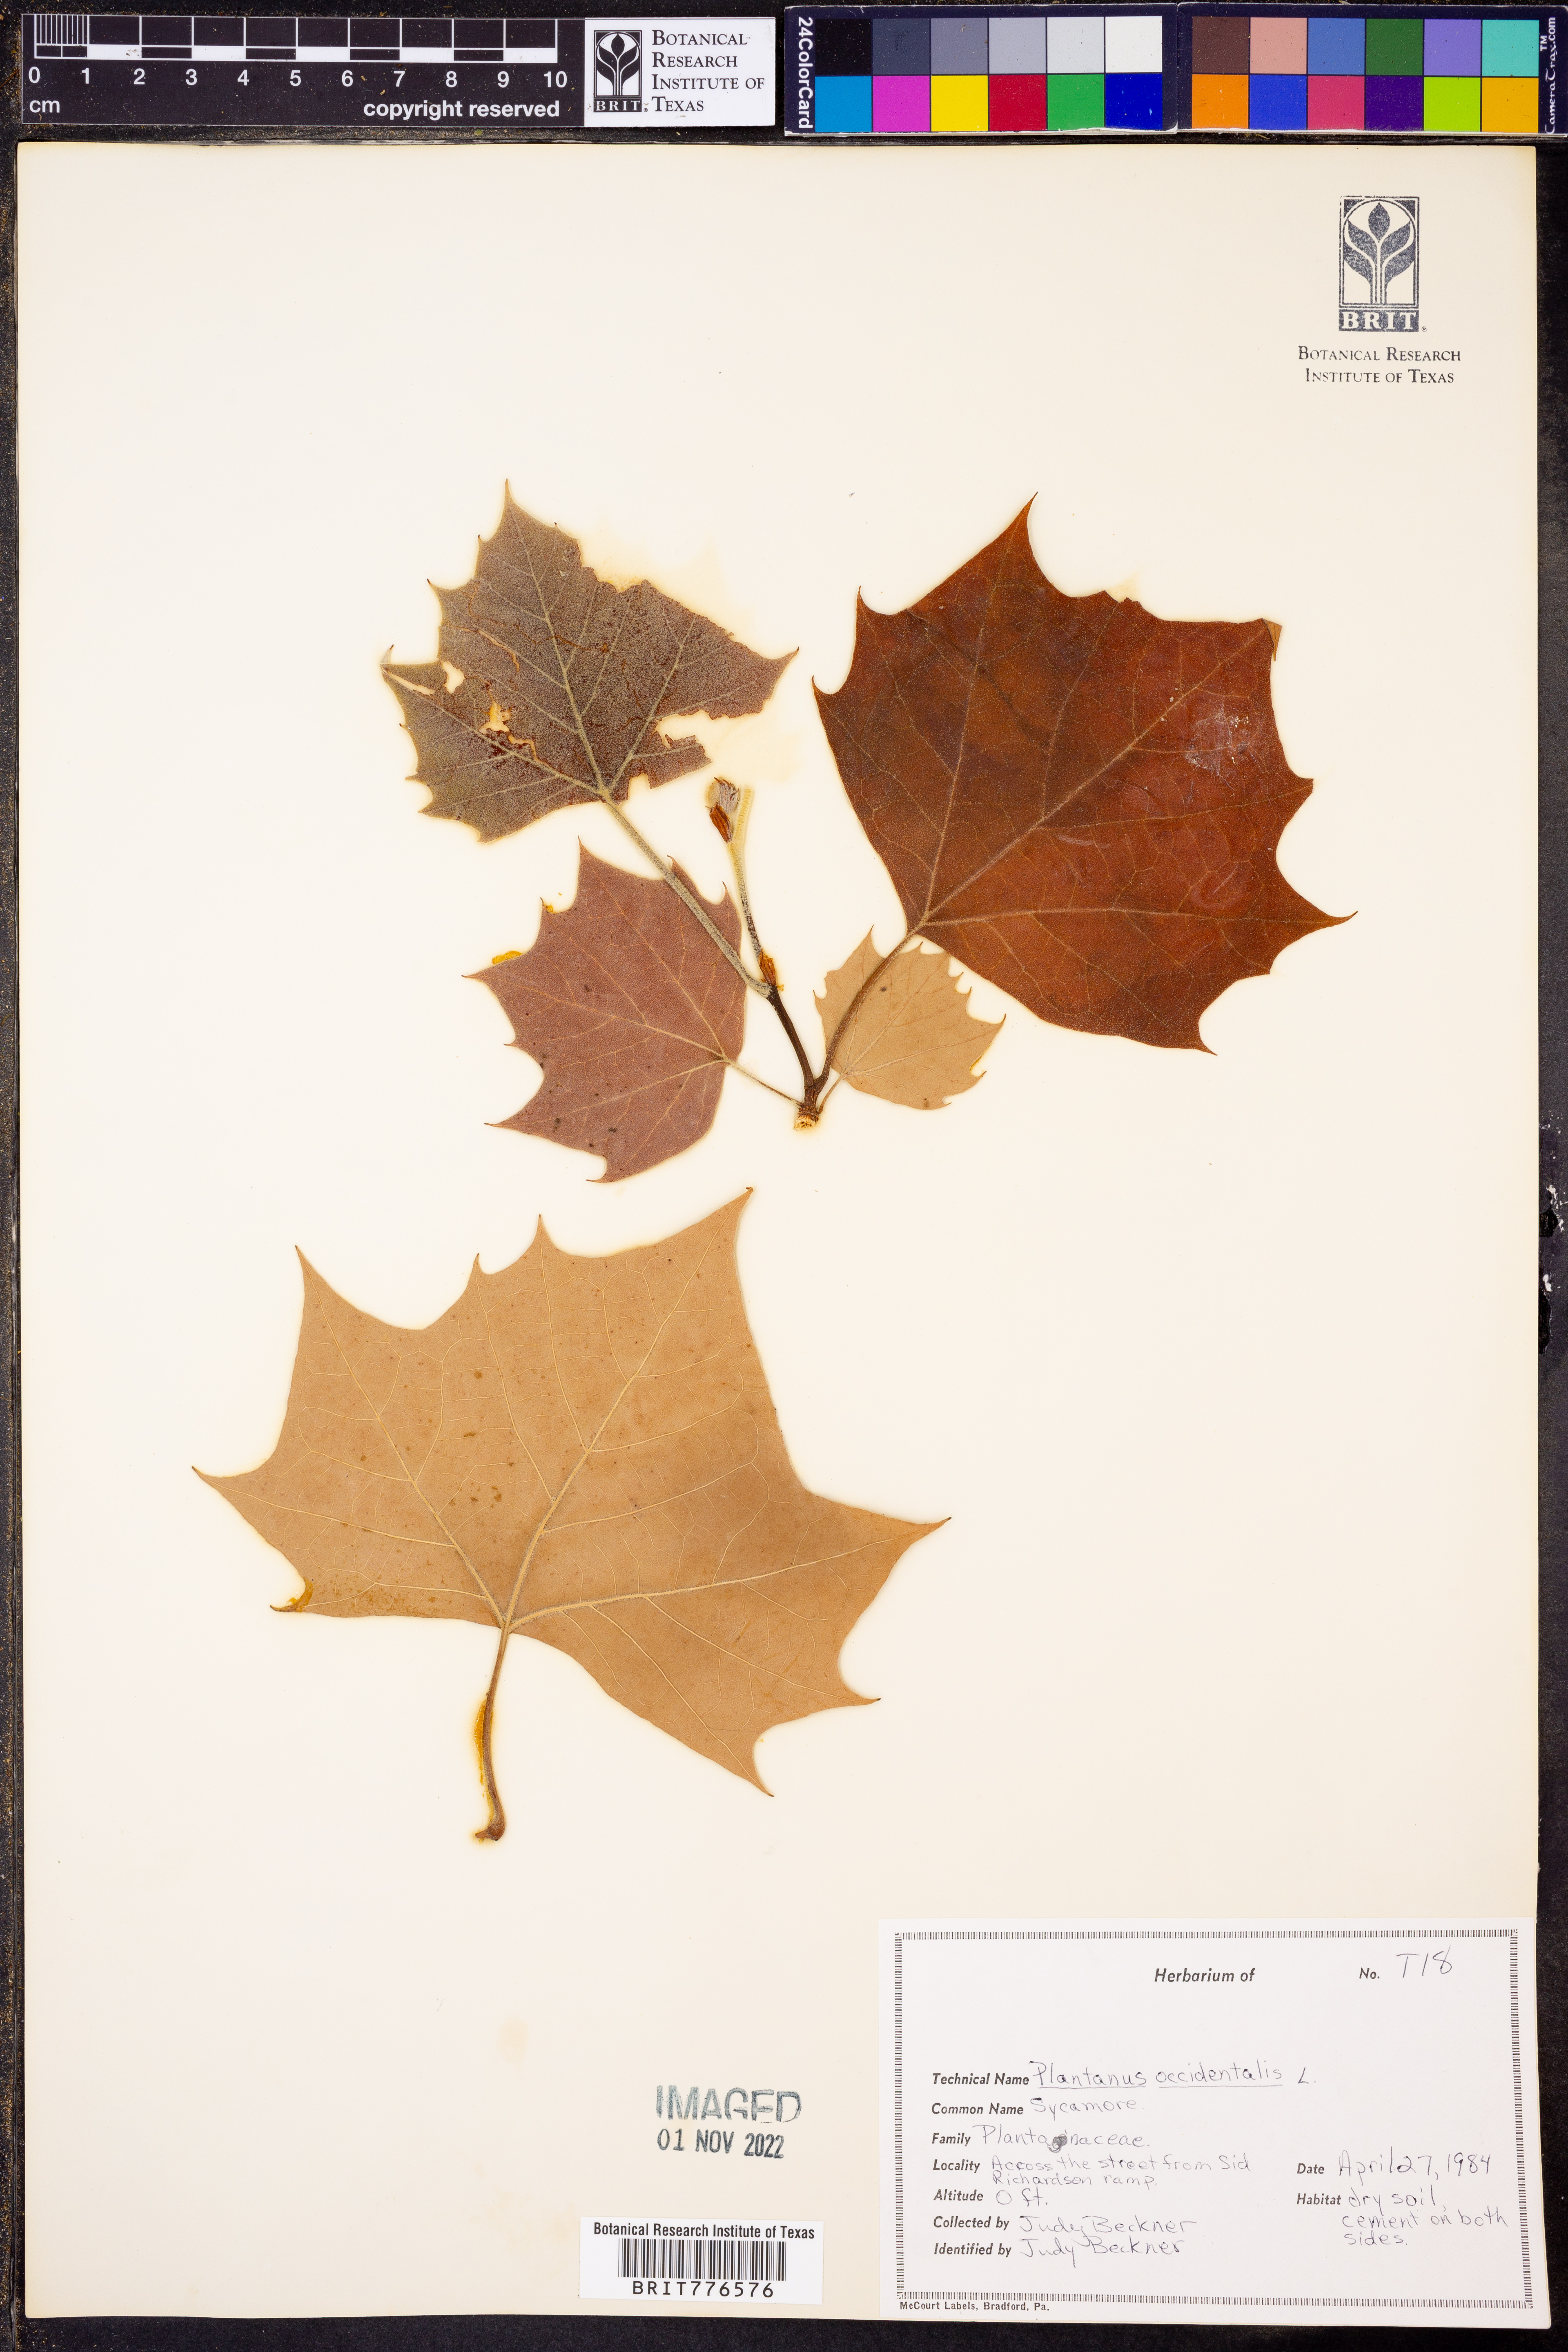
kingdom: Plantae
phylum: Tracheophyta
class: Magnoliopsida
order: Proteales
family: Platanaceae
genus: Platanus
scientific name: Platanus occidentalis
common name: American sycamore
